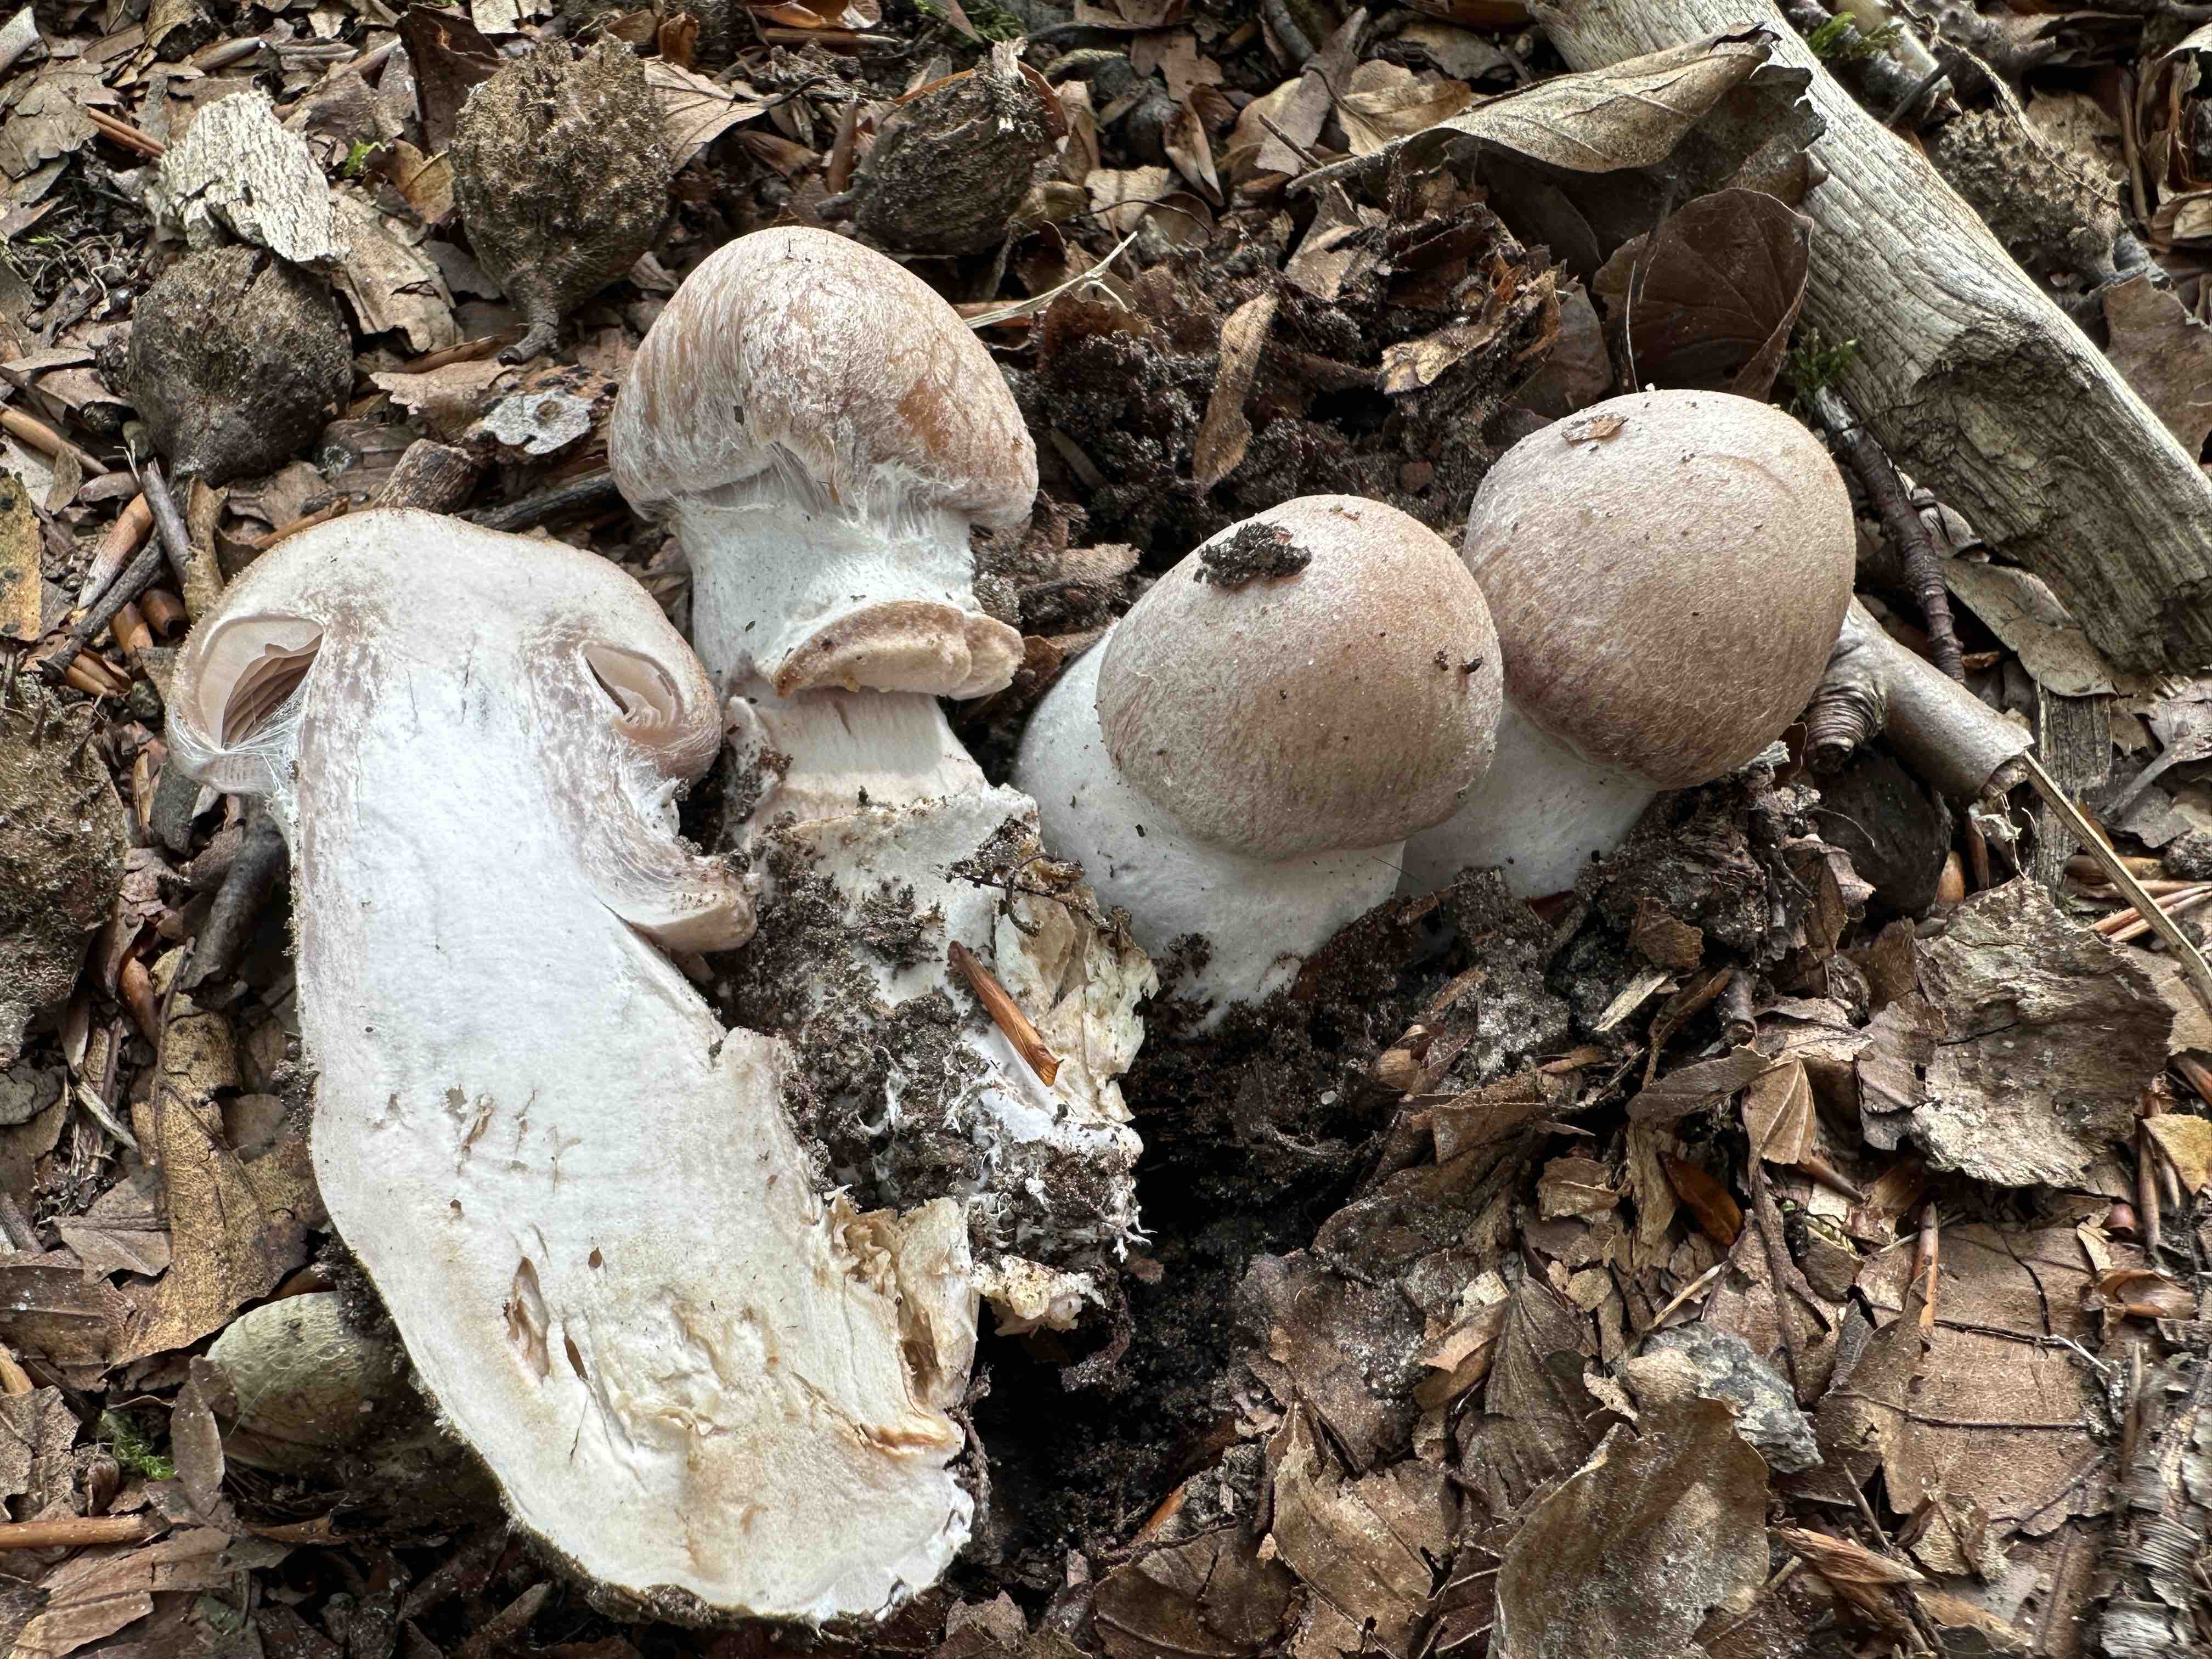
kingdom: Fungi
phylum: Basidiomycota
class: Agaricomycetes
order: Agaricales
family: Cortinariaceae
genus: Cortinarius
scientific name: Cortinarius torvus
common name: champignonagtig slørhat
